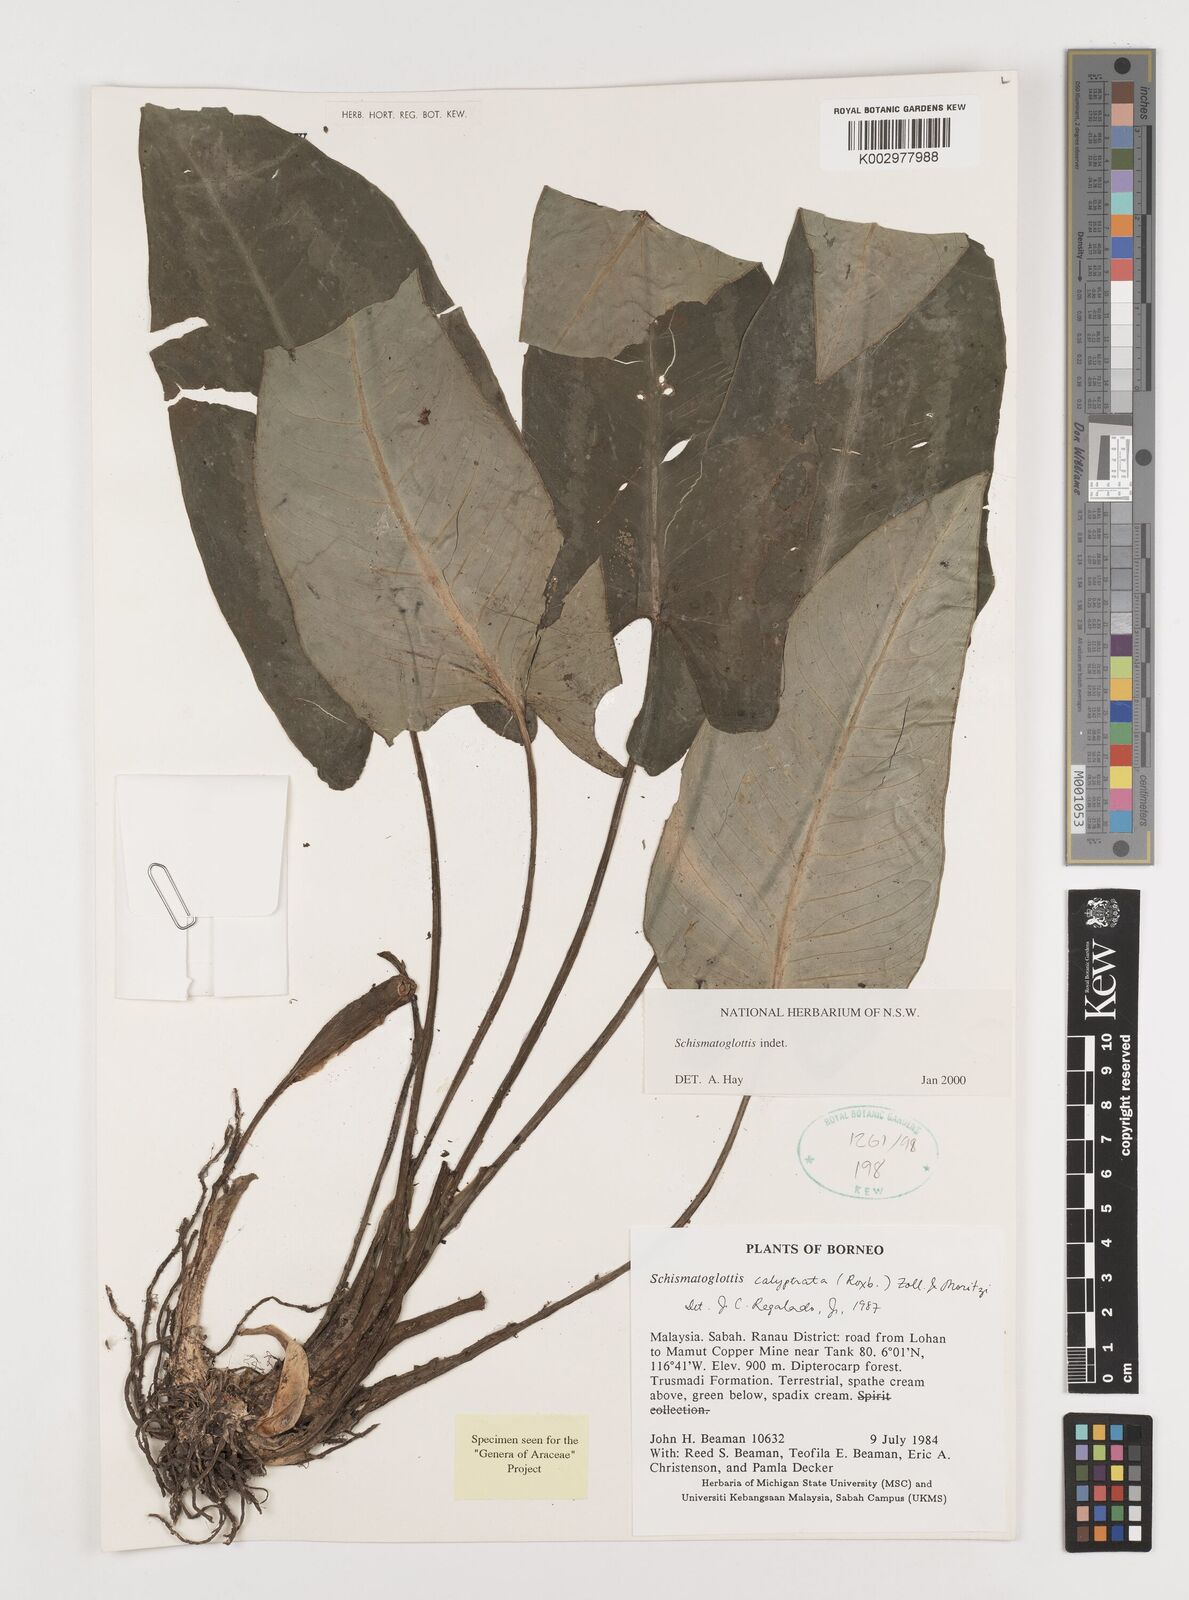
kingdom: Plantae
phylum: Tracheophyta
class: Liliopsida
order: Alismatales
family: Araceae
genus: Schismatoglottis
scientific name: Schismatoglottis calyptrata
